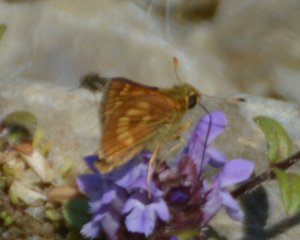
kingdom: Animalia
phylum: Arthropoda
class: Insecta
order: Lepidoptera
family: Hesperiidae
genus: Polites
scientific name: Polites
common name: Long Dash Skipper
